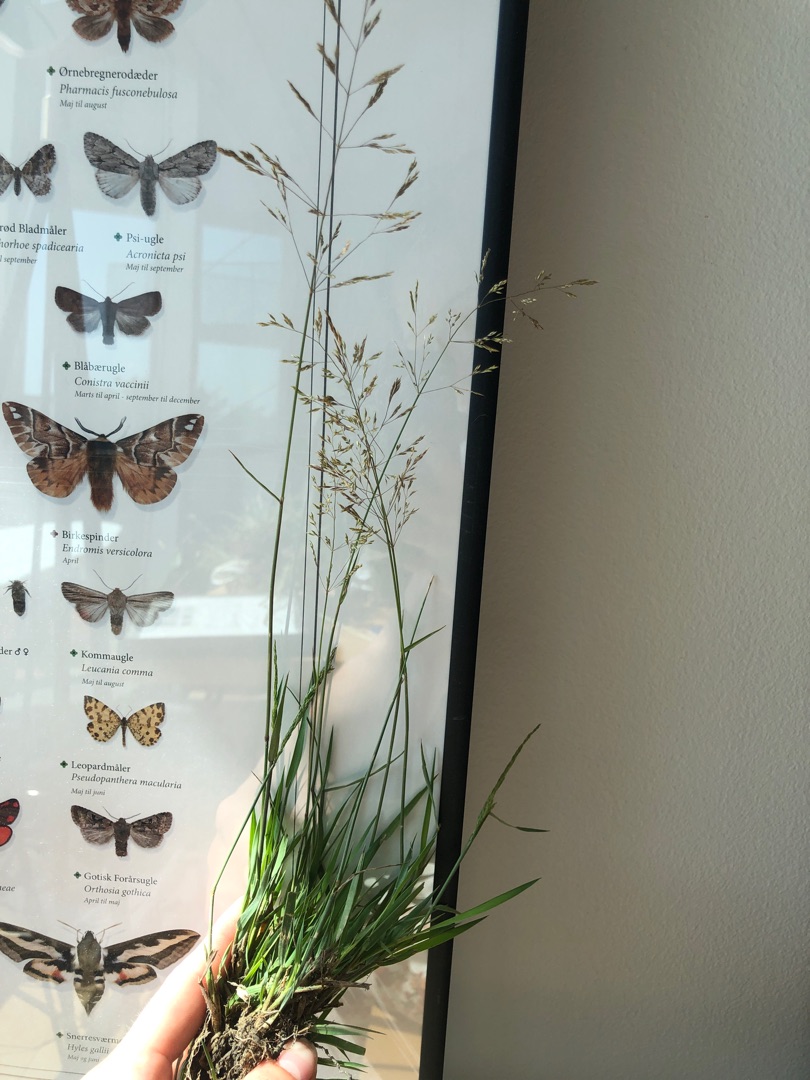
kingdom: Plantae
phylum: Tracheophyta
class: Liliopsida
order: Poales
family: Poaceae
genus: Agrostis
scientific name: Agrostis stolonifera
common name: Kryb-hvene
